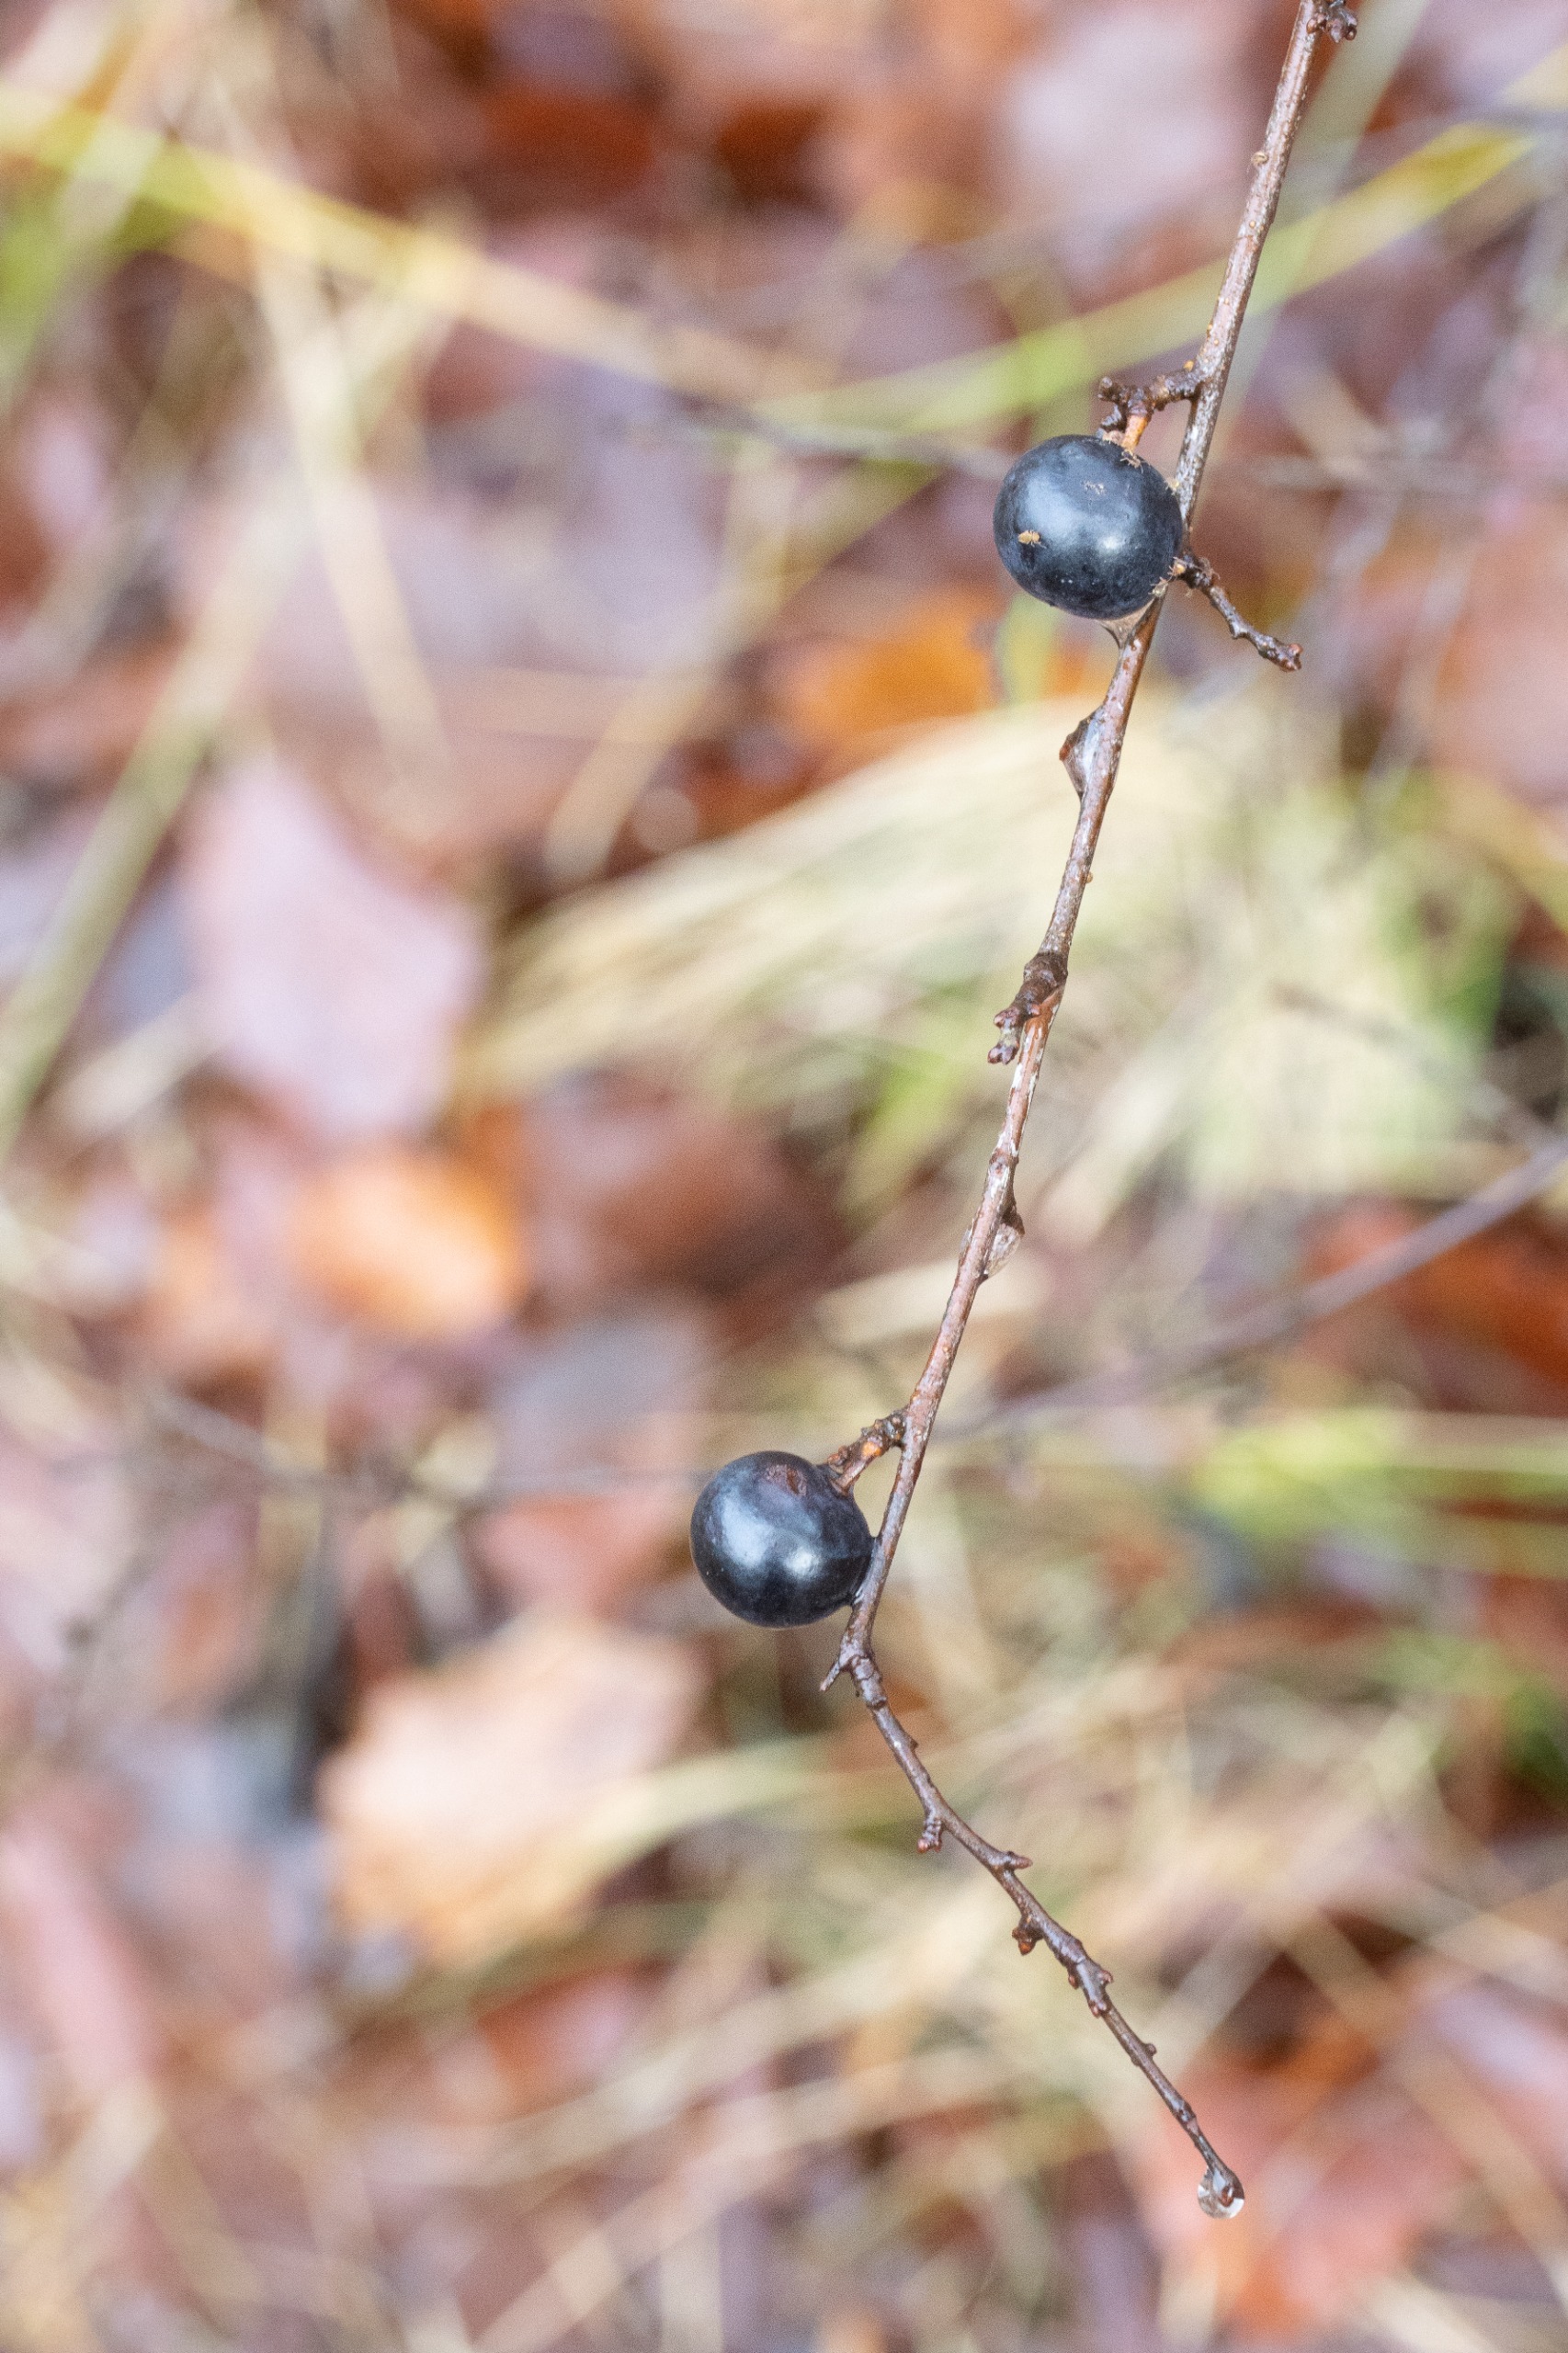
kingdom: Plantae
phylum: Tracheophyta
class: Magnoliopsida
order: Rosales
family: Rosaceae
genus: Prunus
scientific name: Prunus spinosa
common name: Slåen
